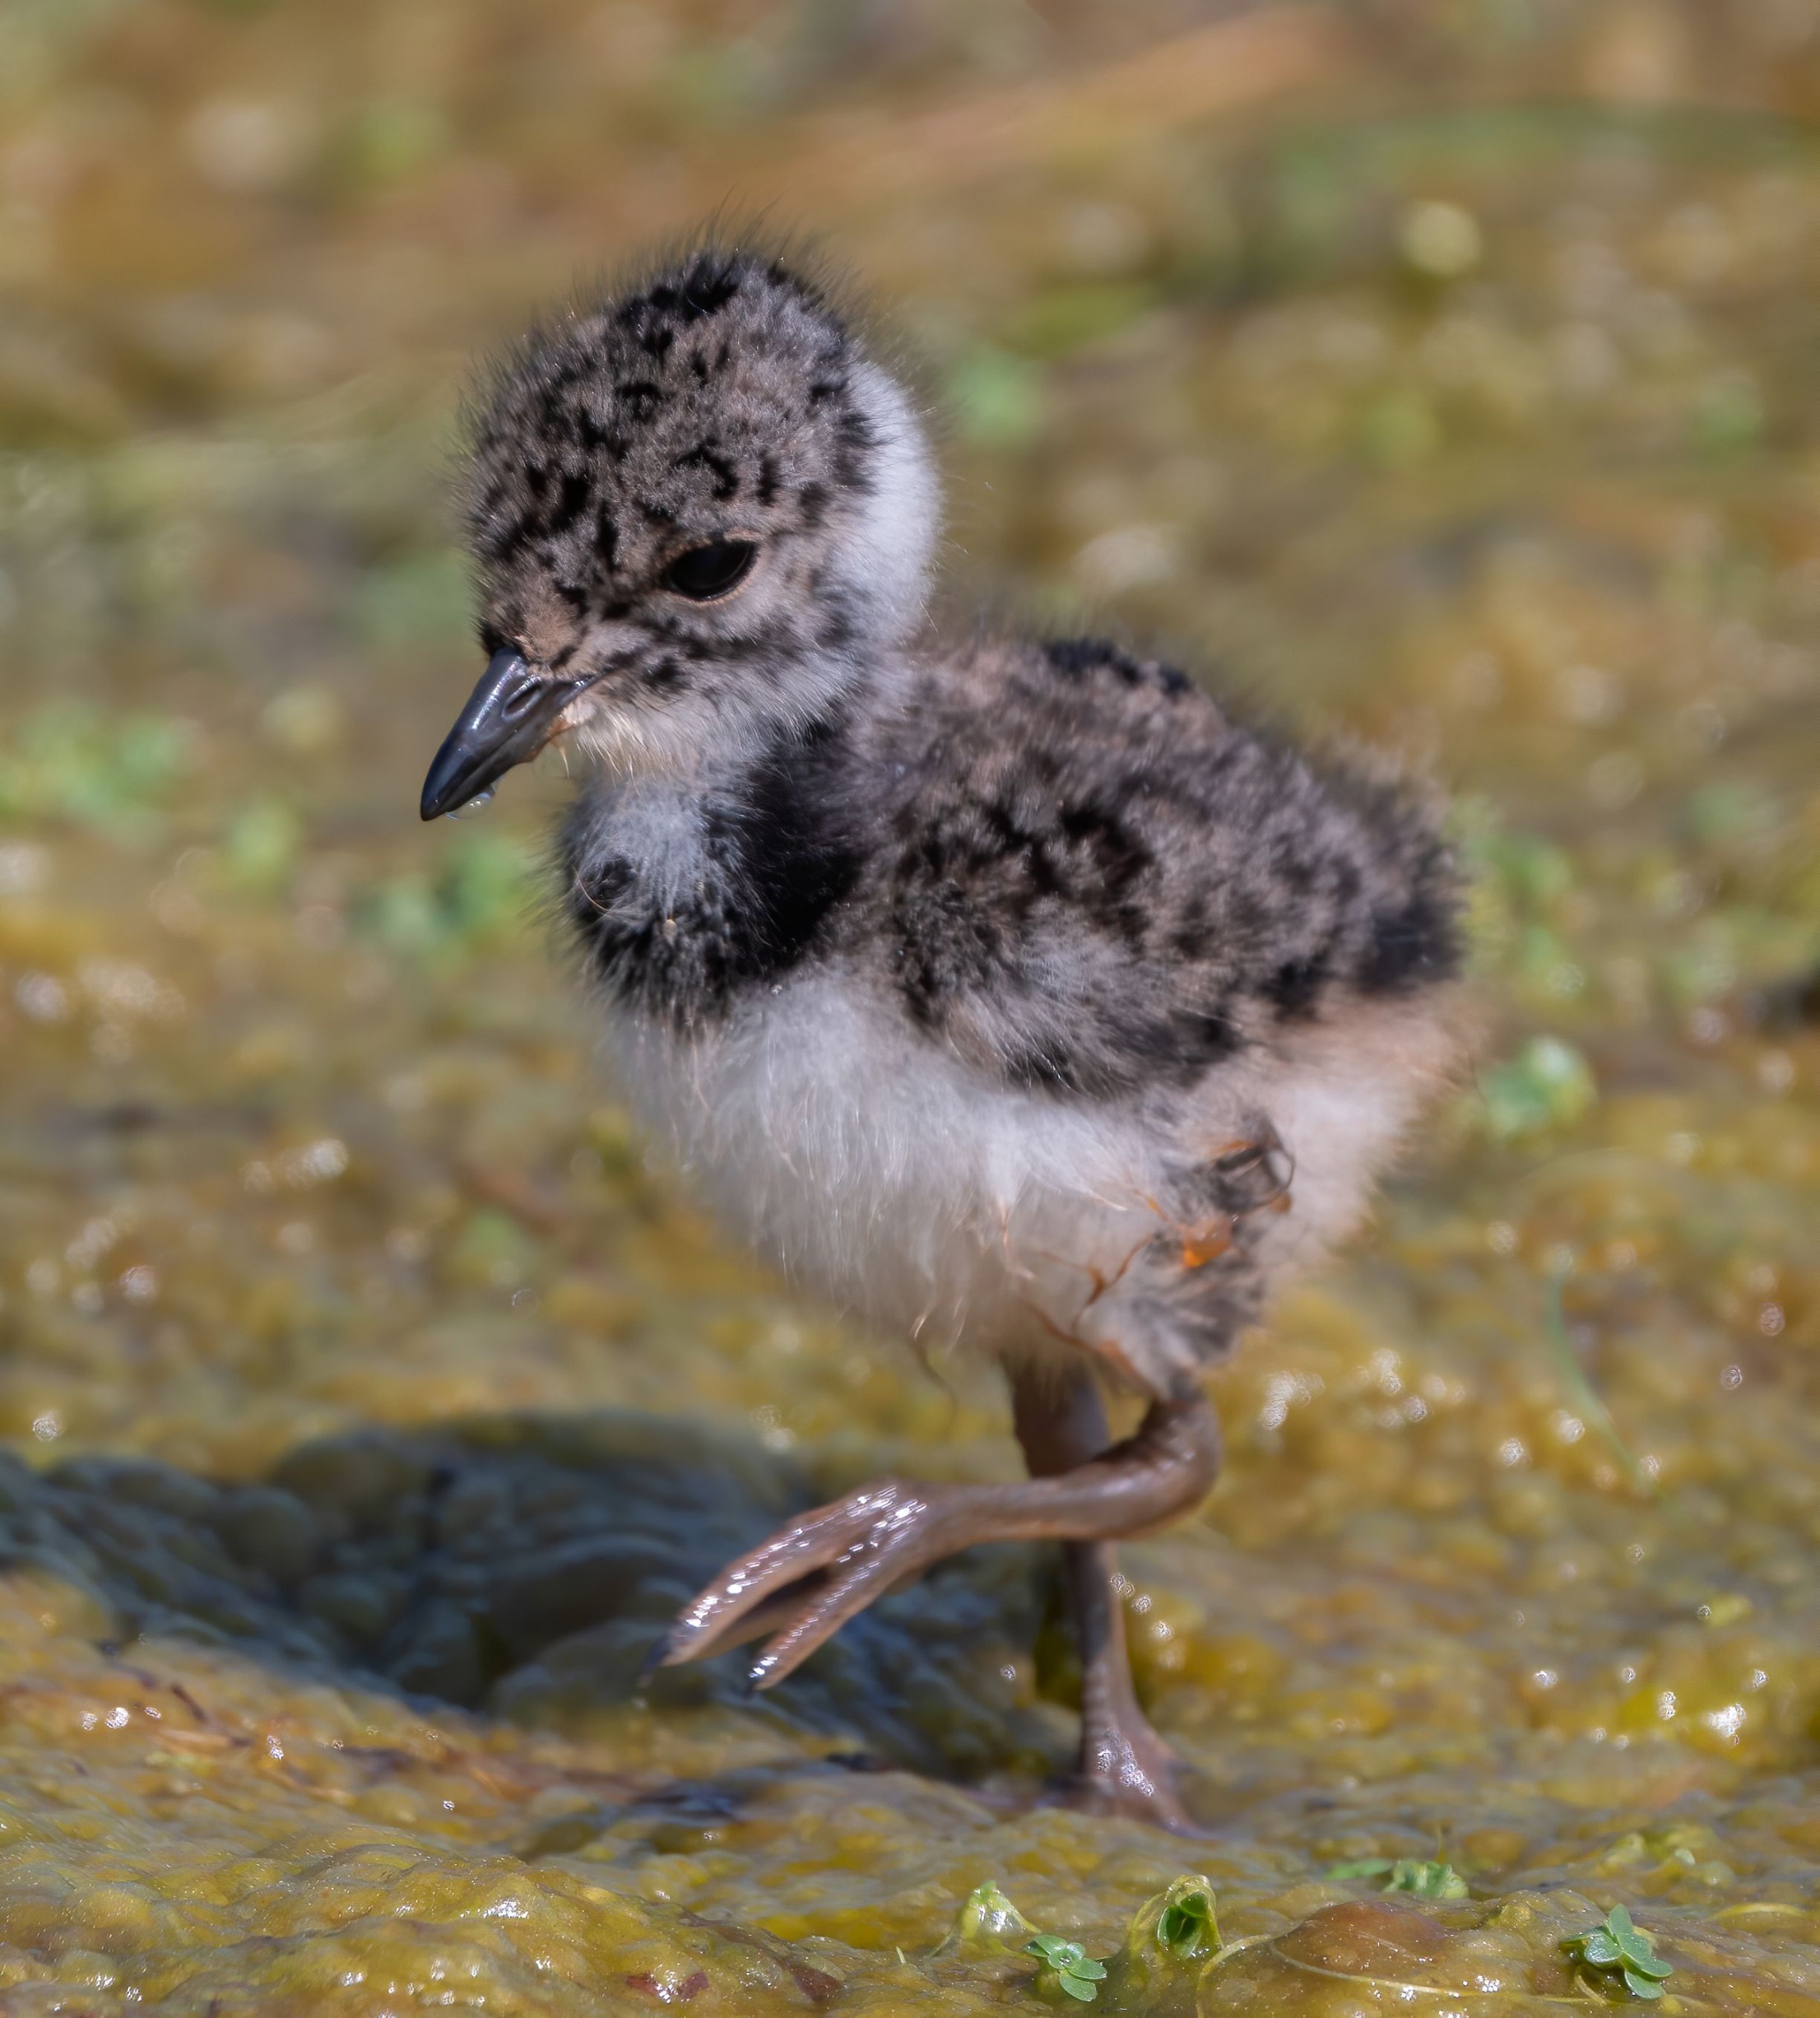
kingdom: Animalia
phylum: Chordata
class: Aves
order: Charadriiformes
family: Charadriidae
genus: Vanellus
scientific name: Vanellus vanellus
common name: Vibe
